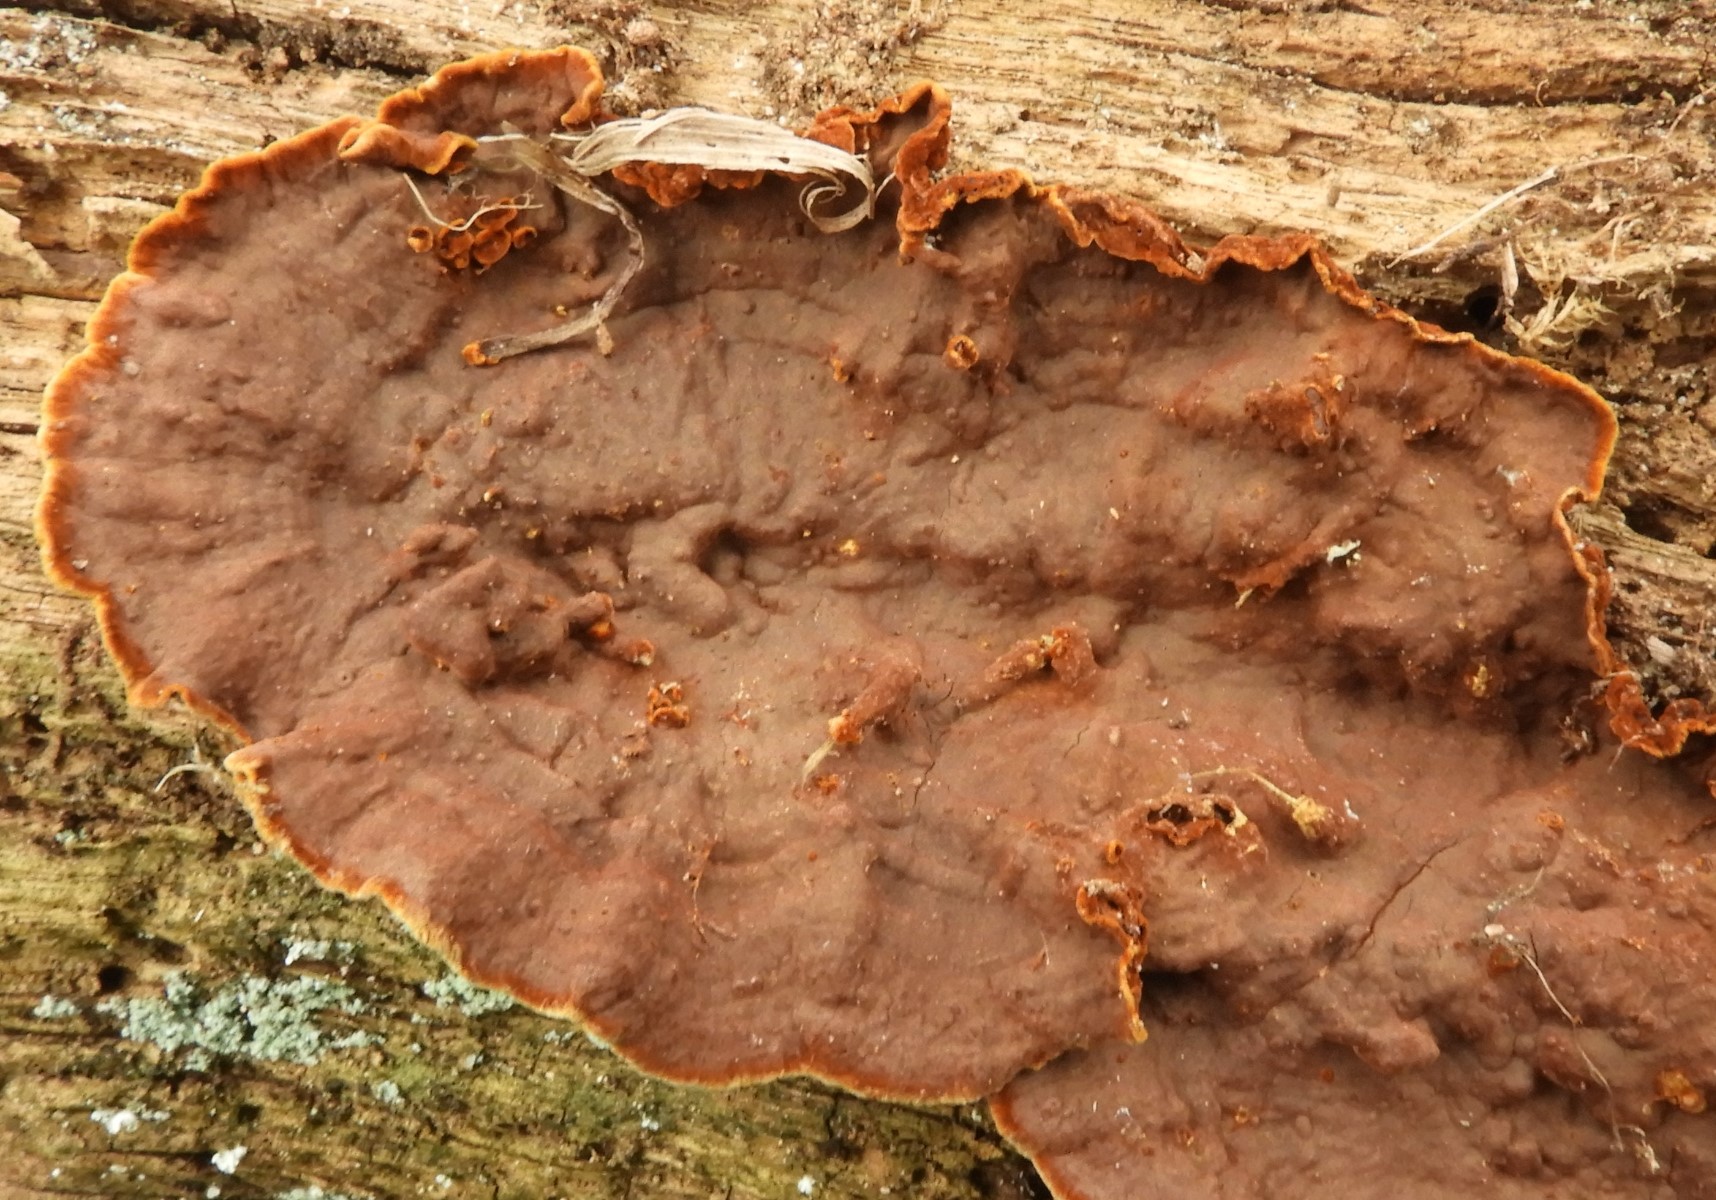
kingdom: Fungi
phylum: Basidiomycota
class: Agaricomycetes
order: Hymenochaetales
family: Hymenochaetaceae
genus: Hymenochaete
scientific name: Hymenochaete rubiginosa
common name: stiv ruslædersvamp
